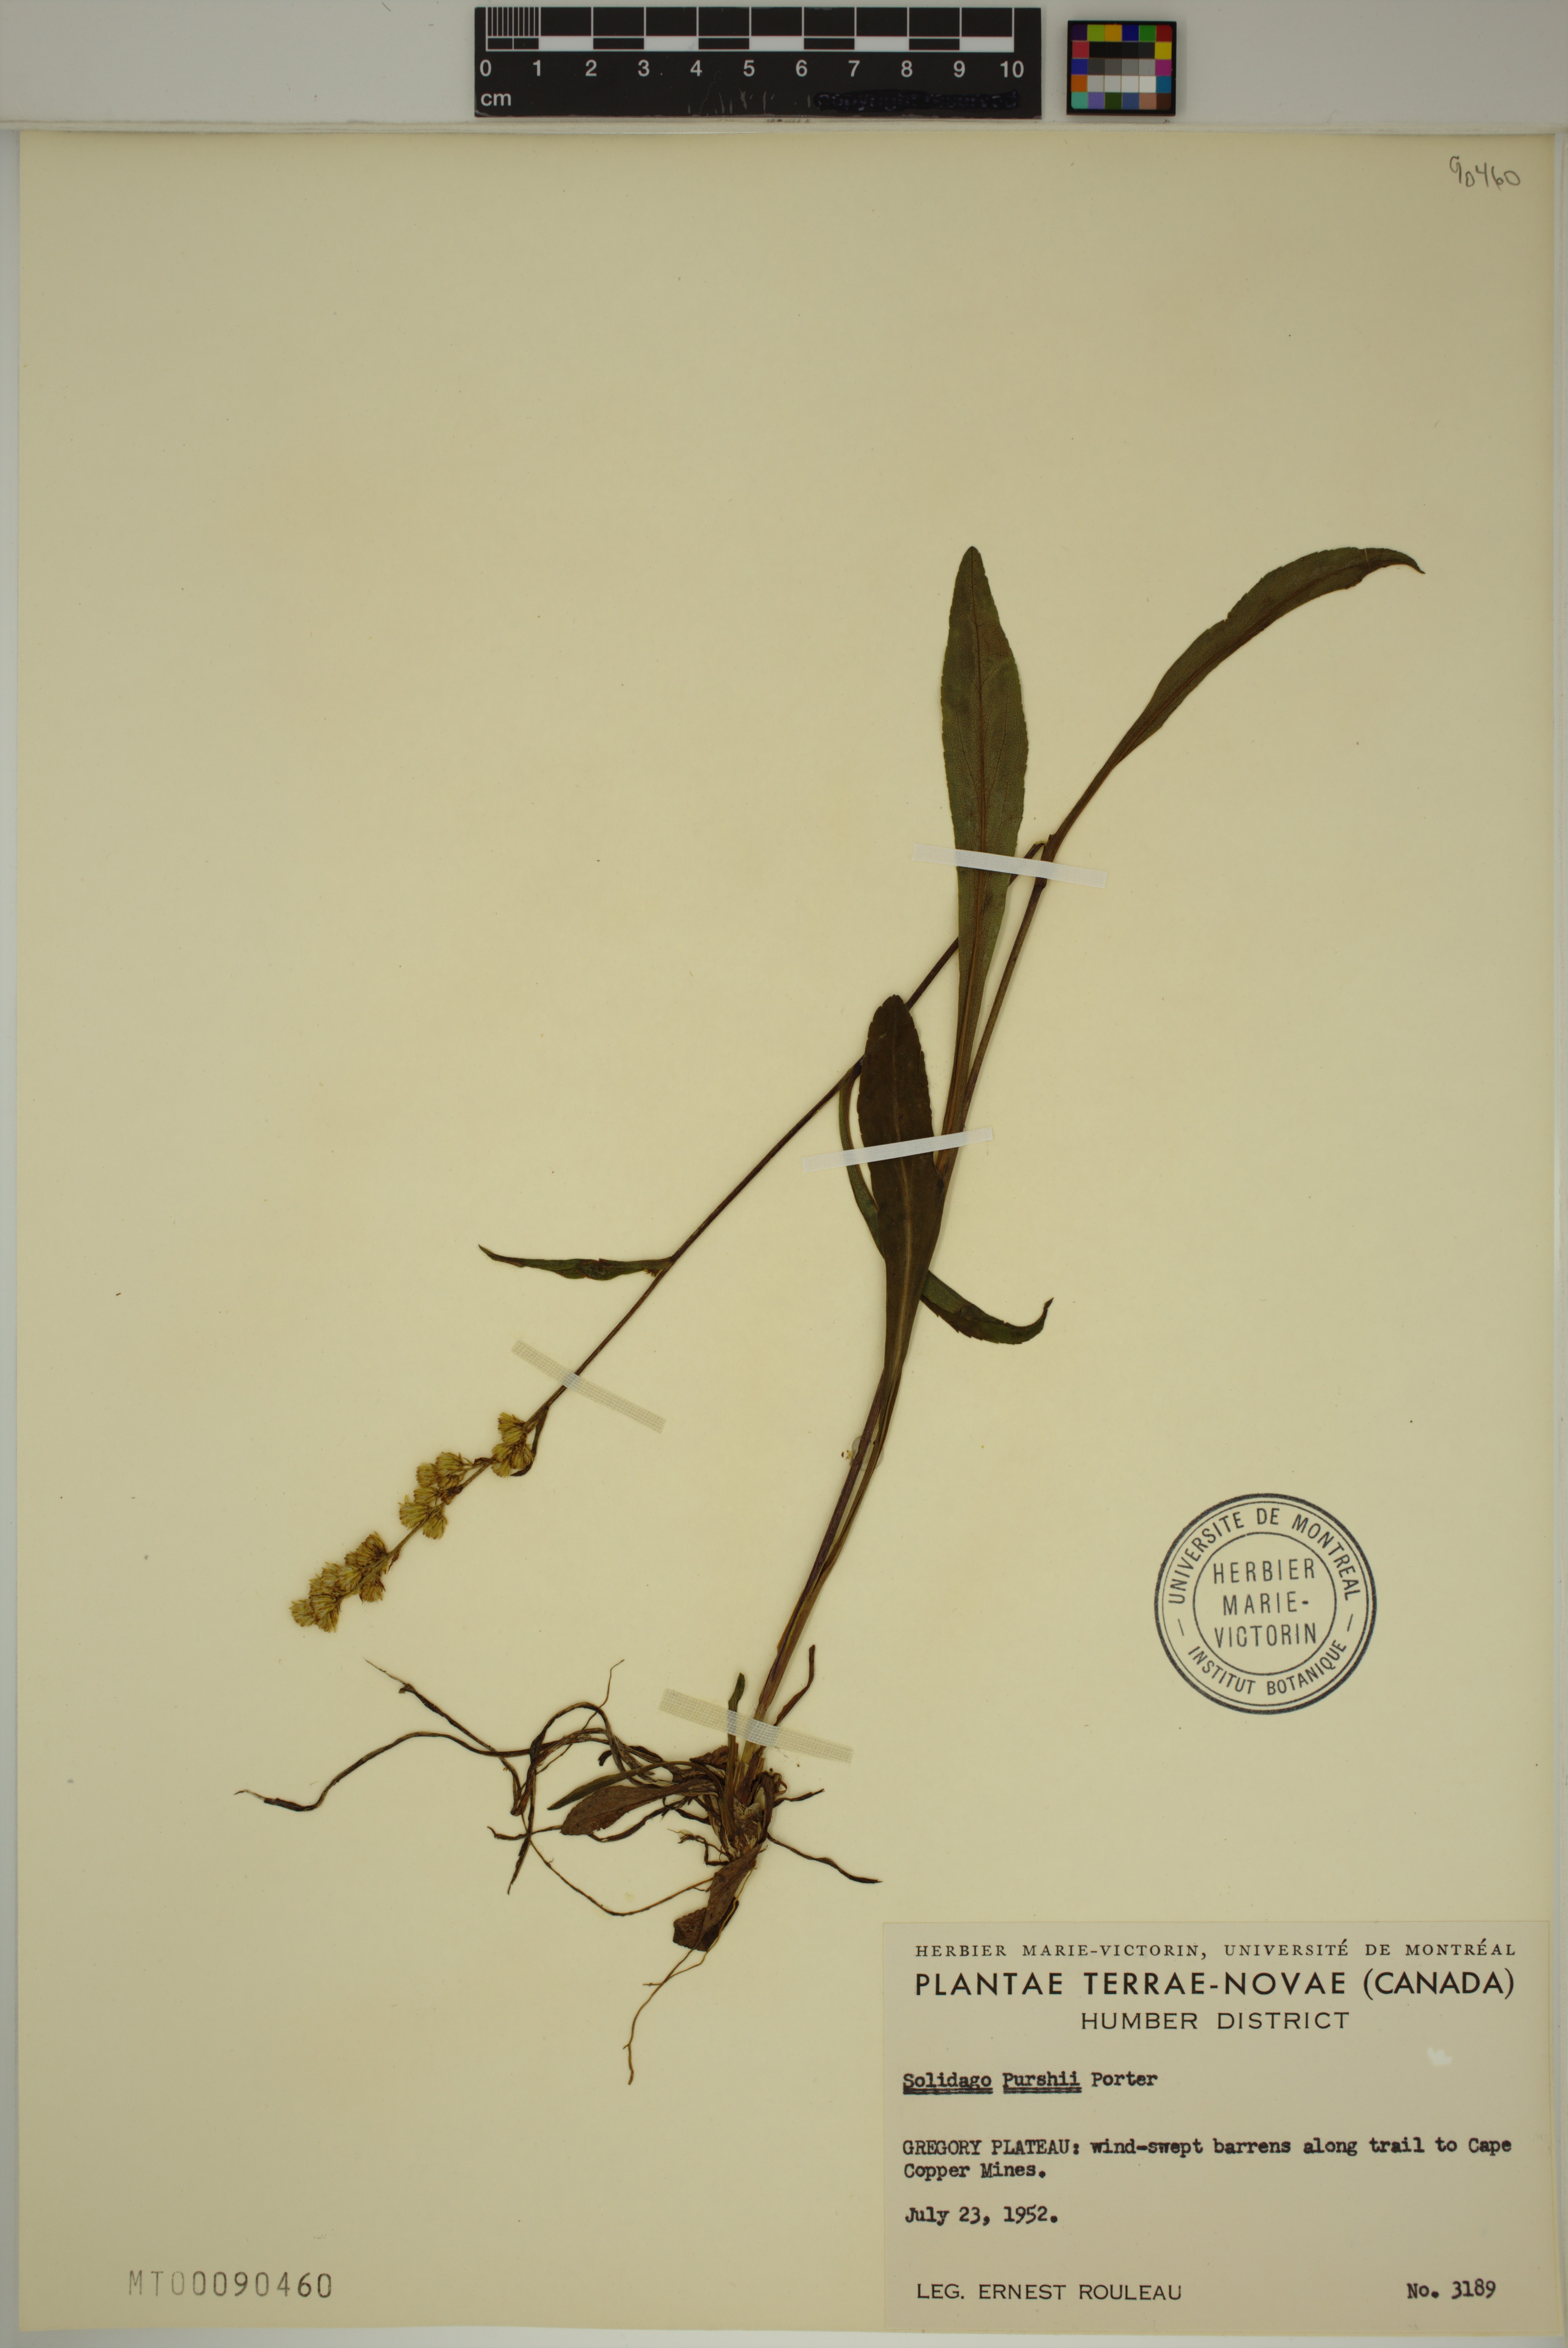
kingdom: Plantae
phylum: Tracheophyta
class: Magnoliopsida
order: Asterales
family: Asteraceae
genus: Solidago
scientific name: Solidago uliginosa
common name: Bog goldenrod
